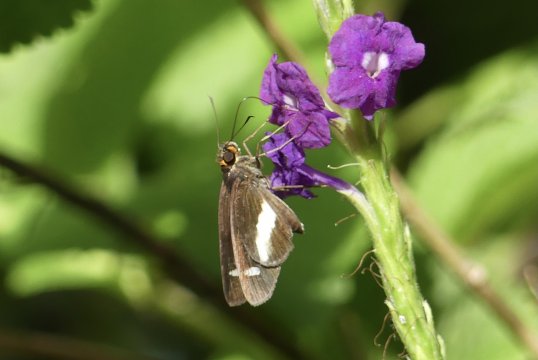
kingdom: Animalia
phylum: Arthropoda
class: Insecta
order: Lepidoptera
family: Hesperiidae
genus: Cobalus
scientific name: Cobalus calvina
